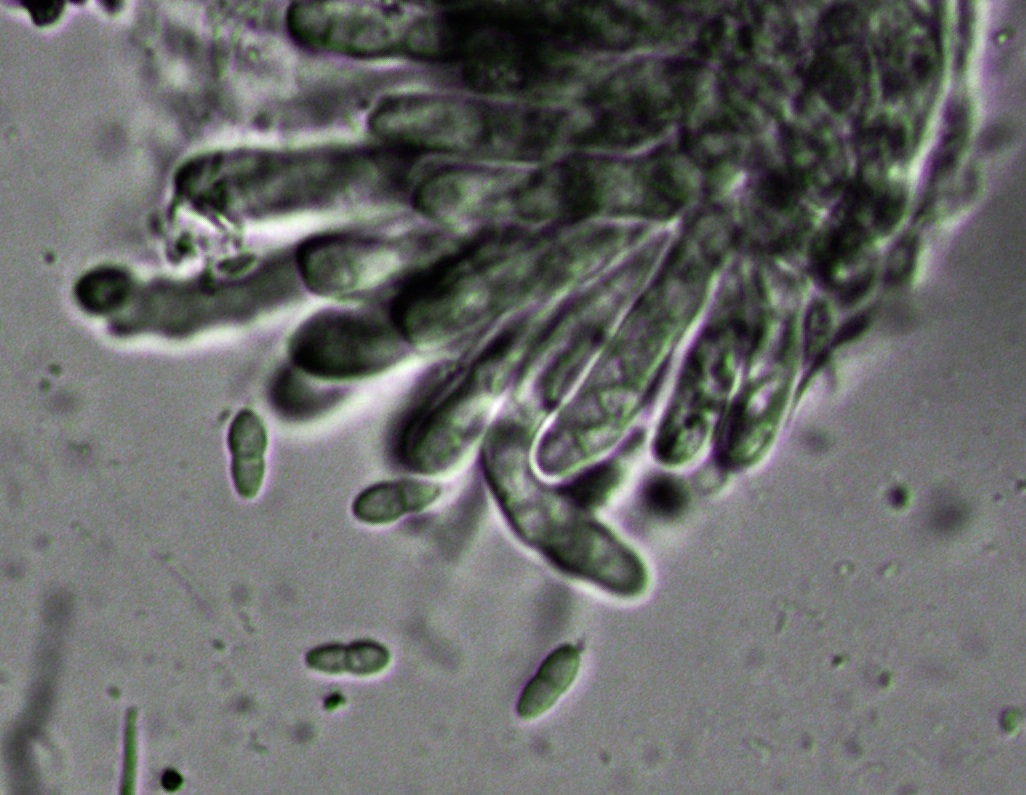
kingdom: Fungi
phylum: Ascomycota
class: Dothideomycetes
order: Capnodiales
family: Mycosphaerellaceae
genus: Mycosphaerella
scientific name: Mycosphaerella
